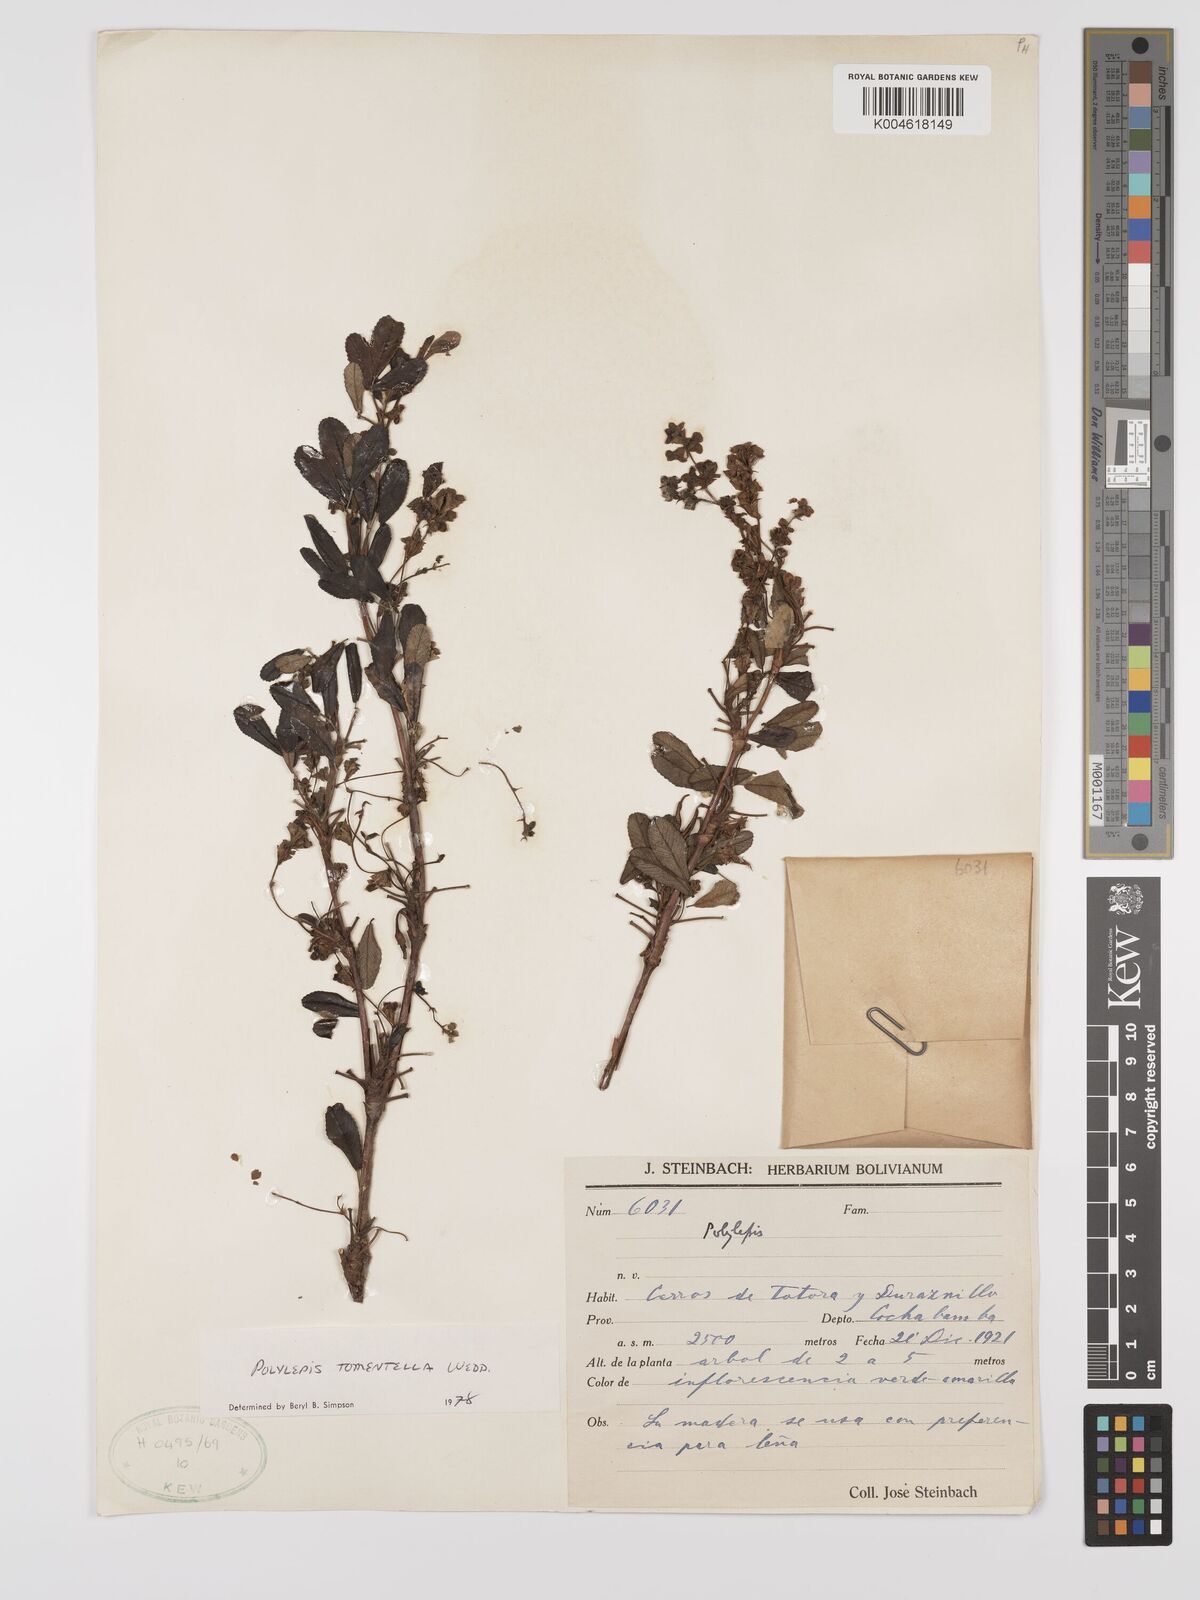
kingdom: Plantae
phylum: Tracheophyta
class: Magnoliopsida
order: Rosales
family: Rosaceae
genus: Polylepis
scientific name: Polylepis tomentella
